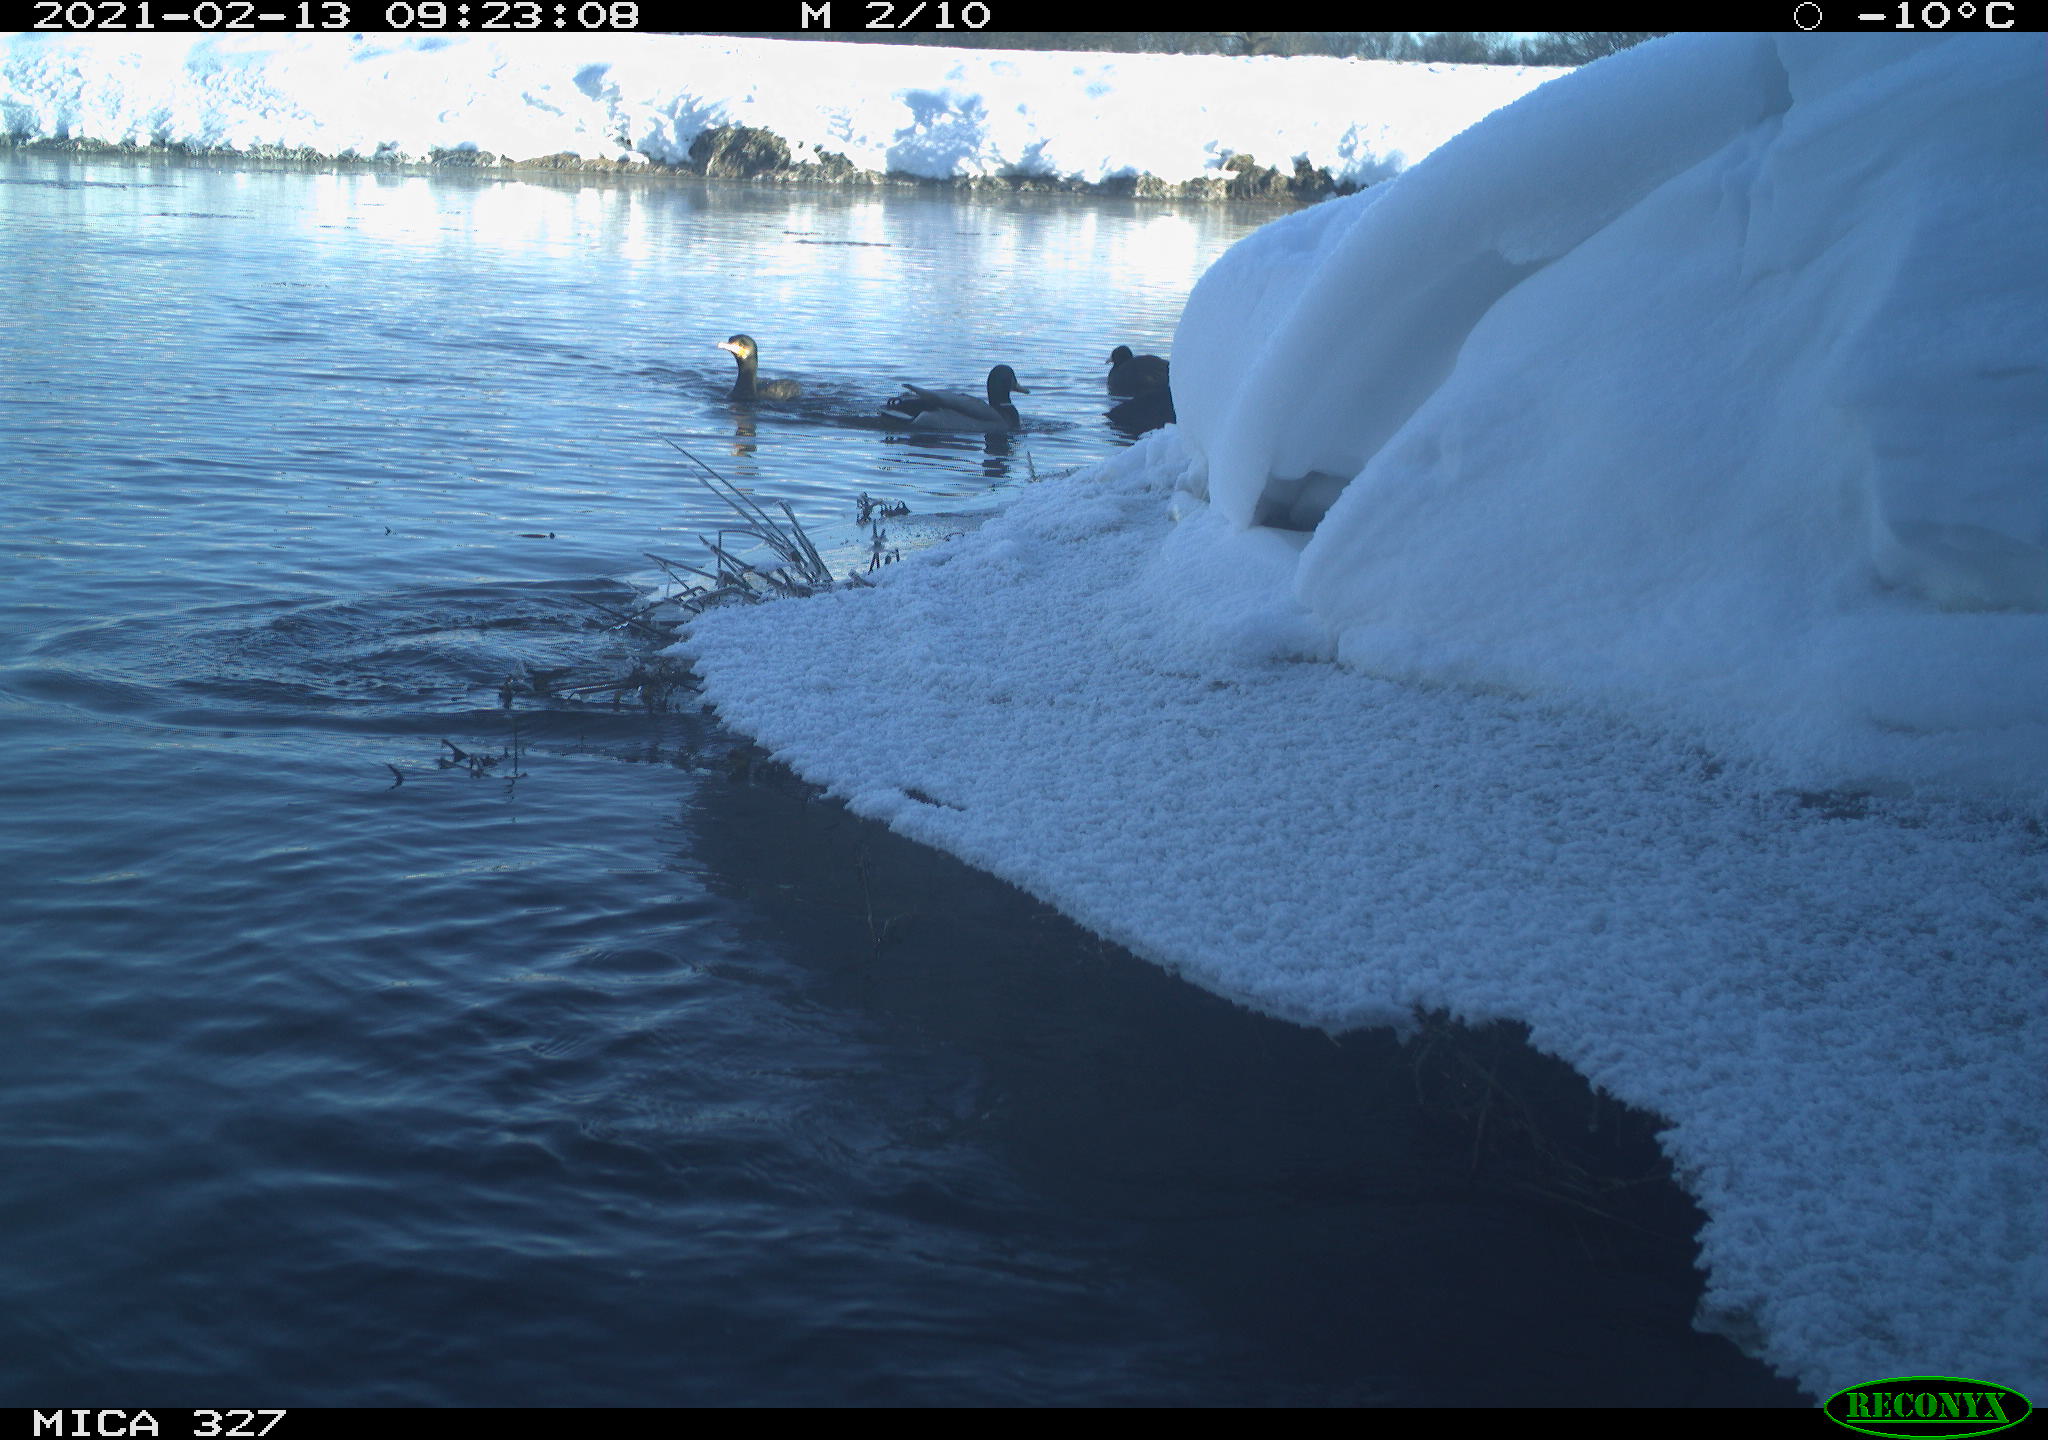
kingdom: Animalia
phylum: Chordata
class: Aves
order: Suliformes
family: Phalacrocoracidae
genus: Phalacrocorax
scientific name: Phalacrocorax carbo
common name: Great cormorant
